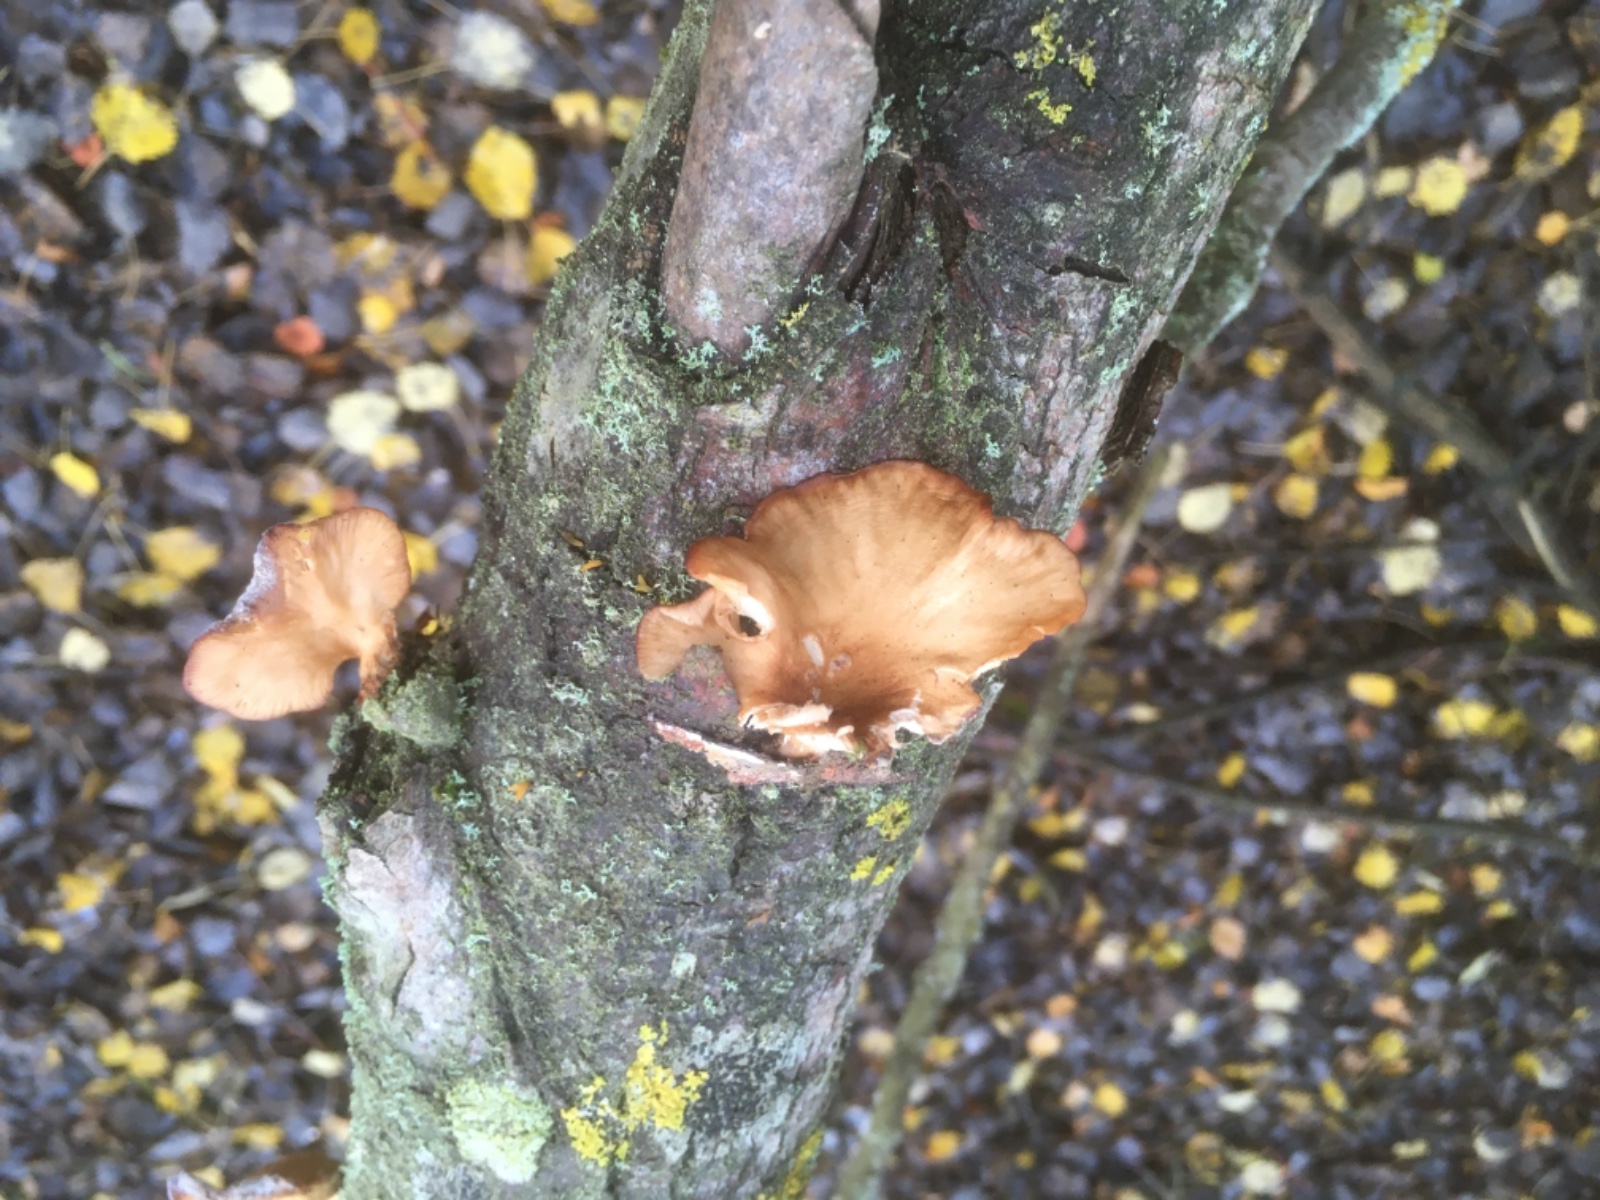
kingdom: Fungi
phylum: Basidiomycota
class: Agaricomycetes
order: Polyporales
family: Panaceae
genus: Panus
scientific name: Panus conchatus
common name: filtstokket læderhat
